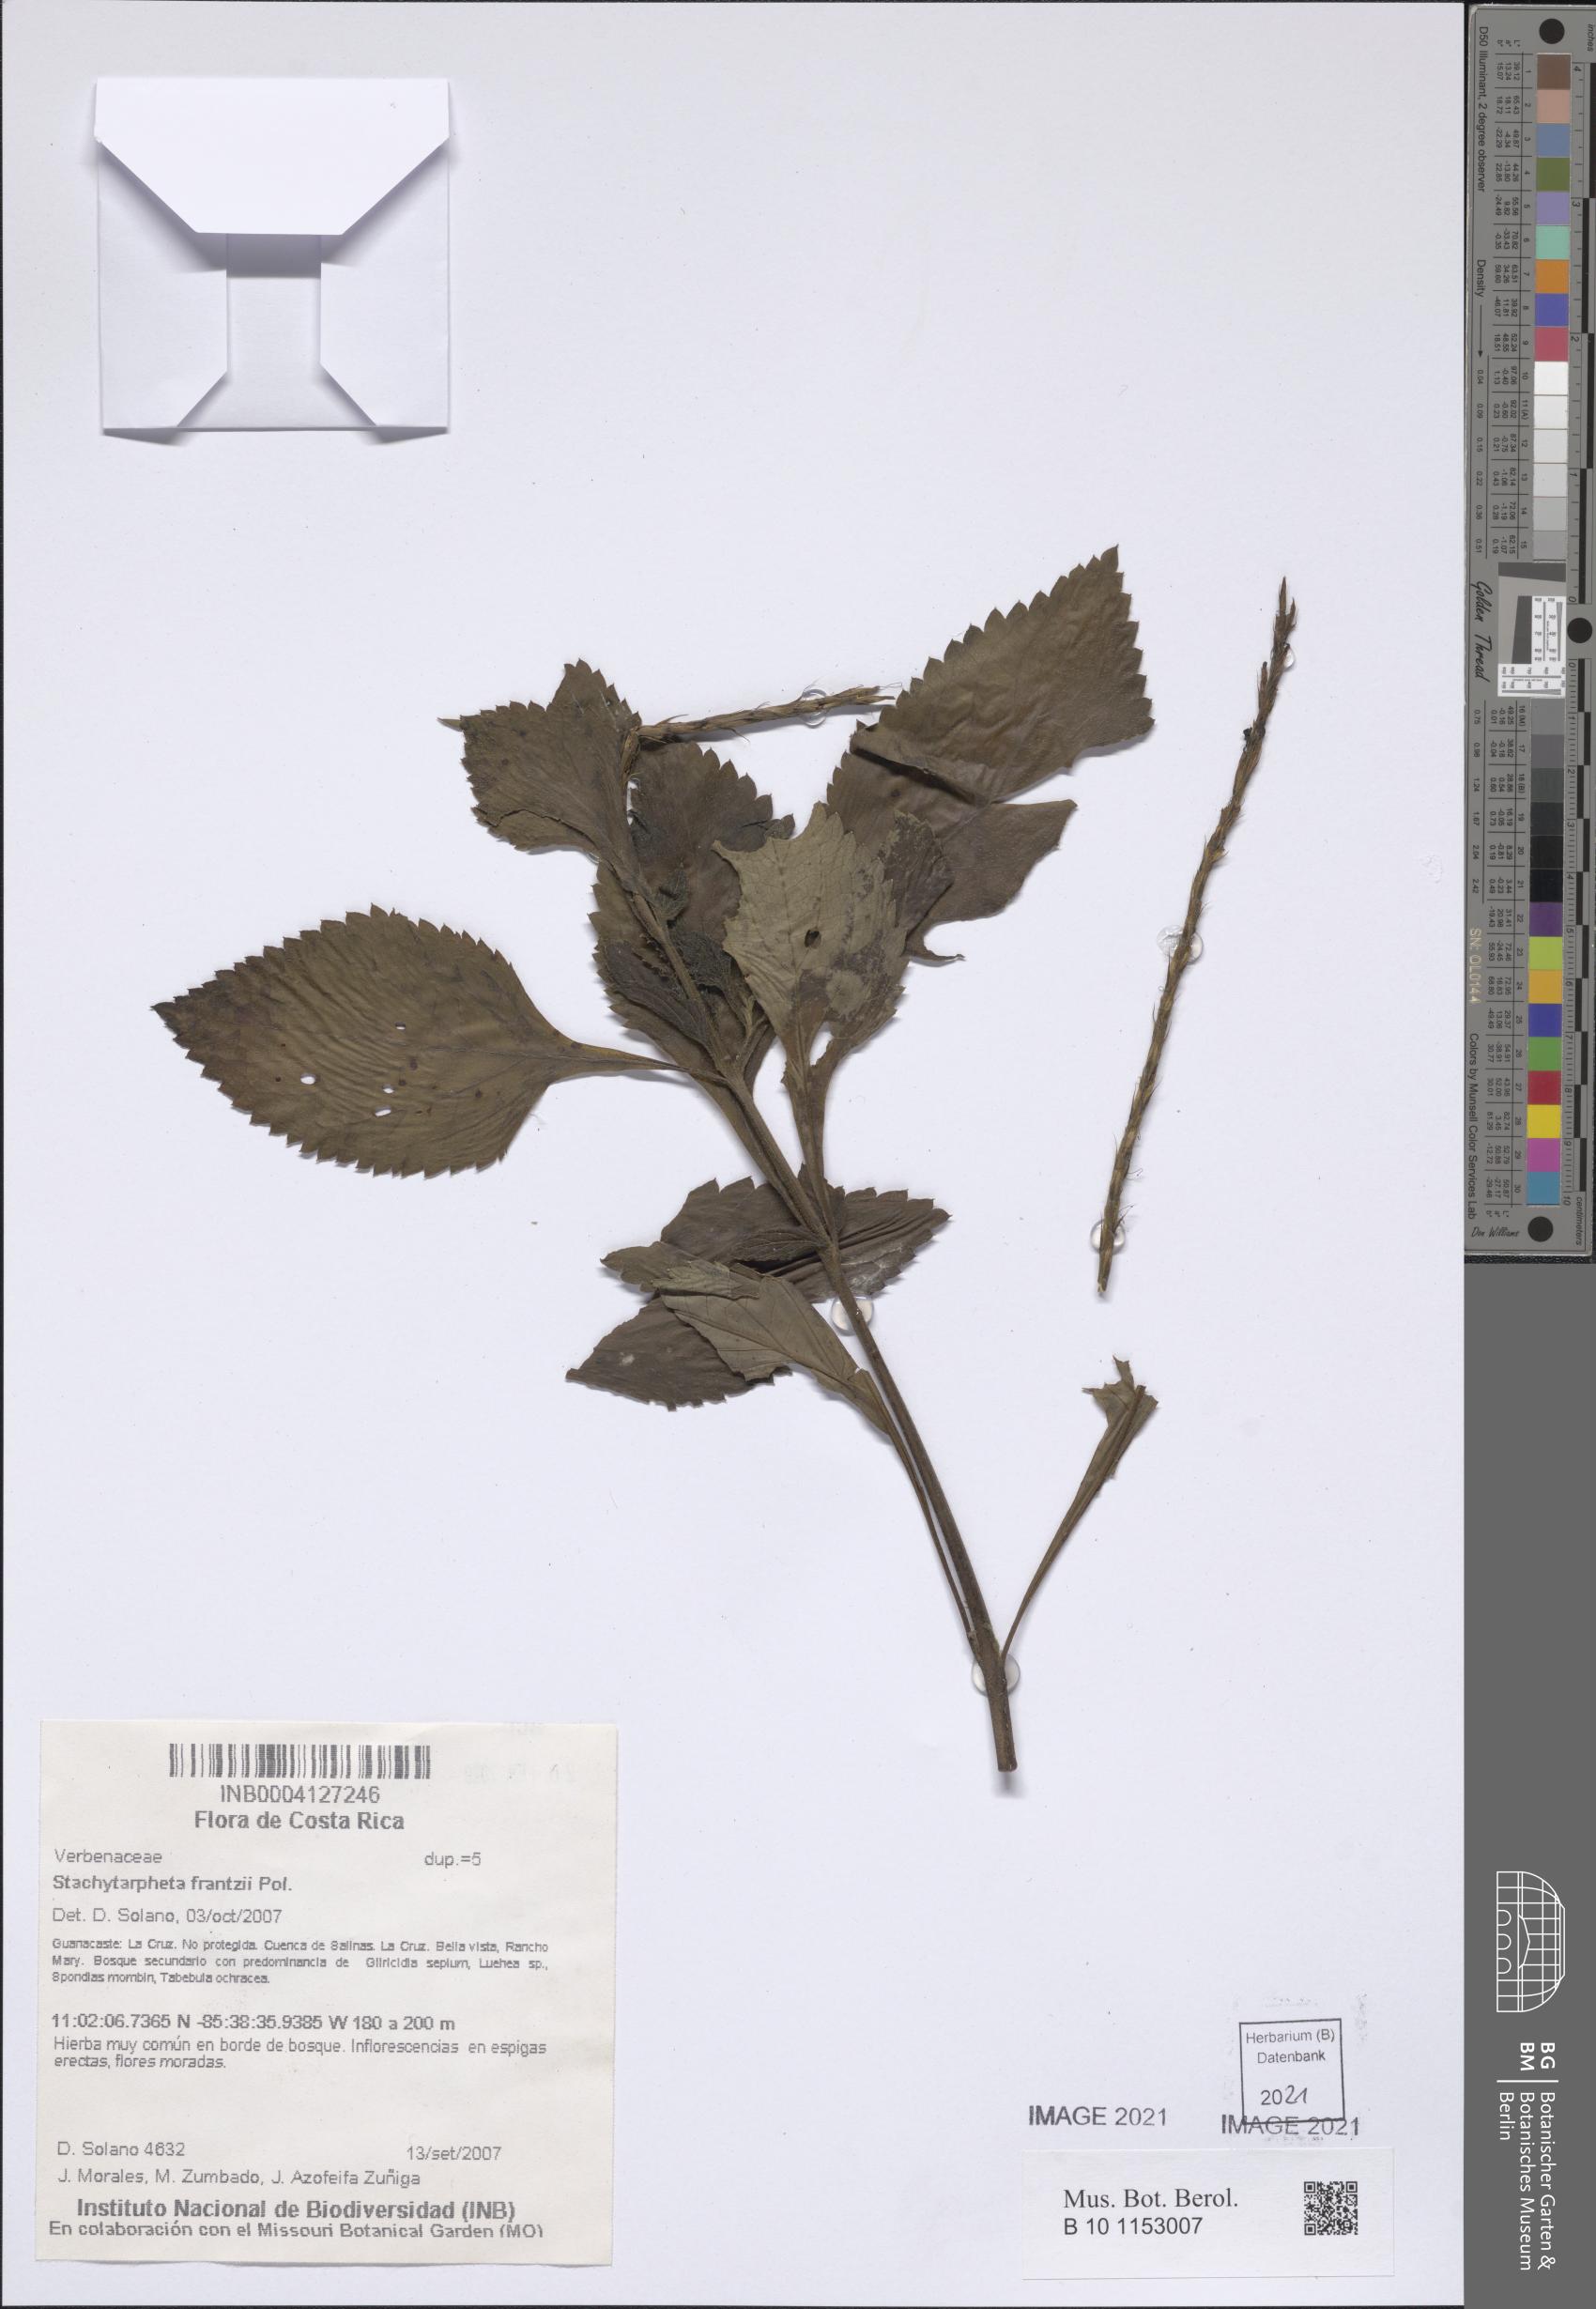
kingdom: Plantae
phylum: Tracheophyta
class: Magnoliopsida
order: Lamiales
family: Verbenaceae
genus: Stachytarpheta
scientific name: Stachytarpheta frantzii
